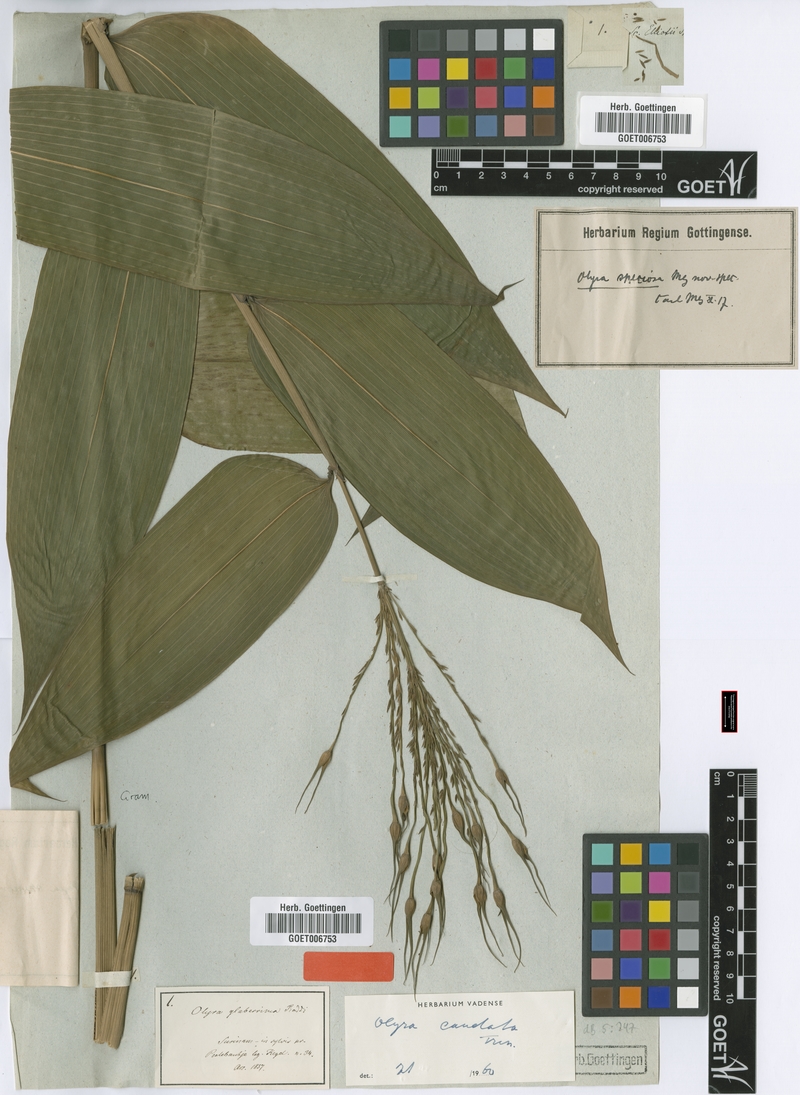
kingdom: Plantae
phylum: Tracheophyta
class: Liliopsida
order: Poales
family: Poaceae
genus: Olyra
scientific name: Olyra caudata
